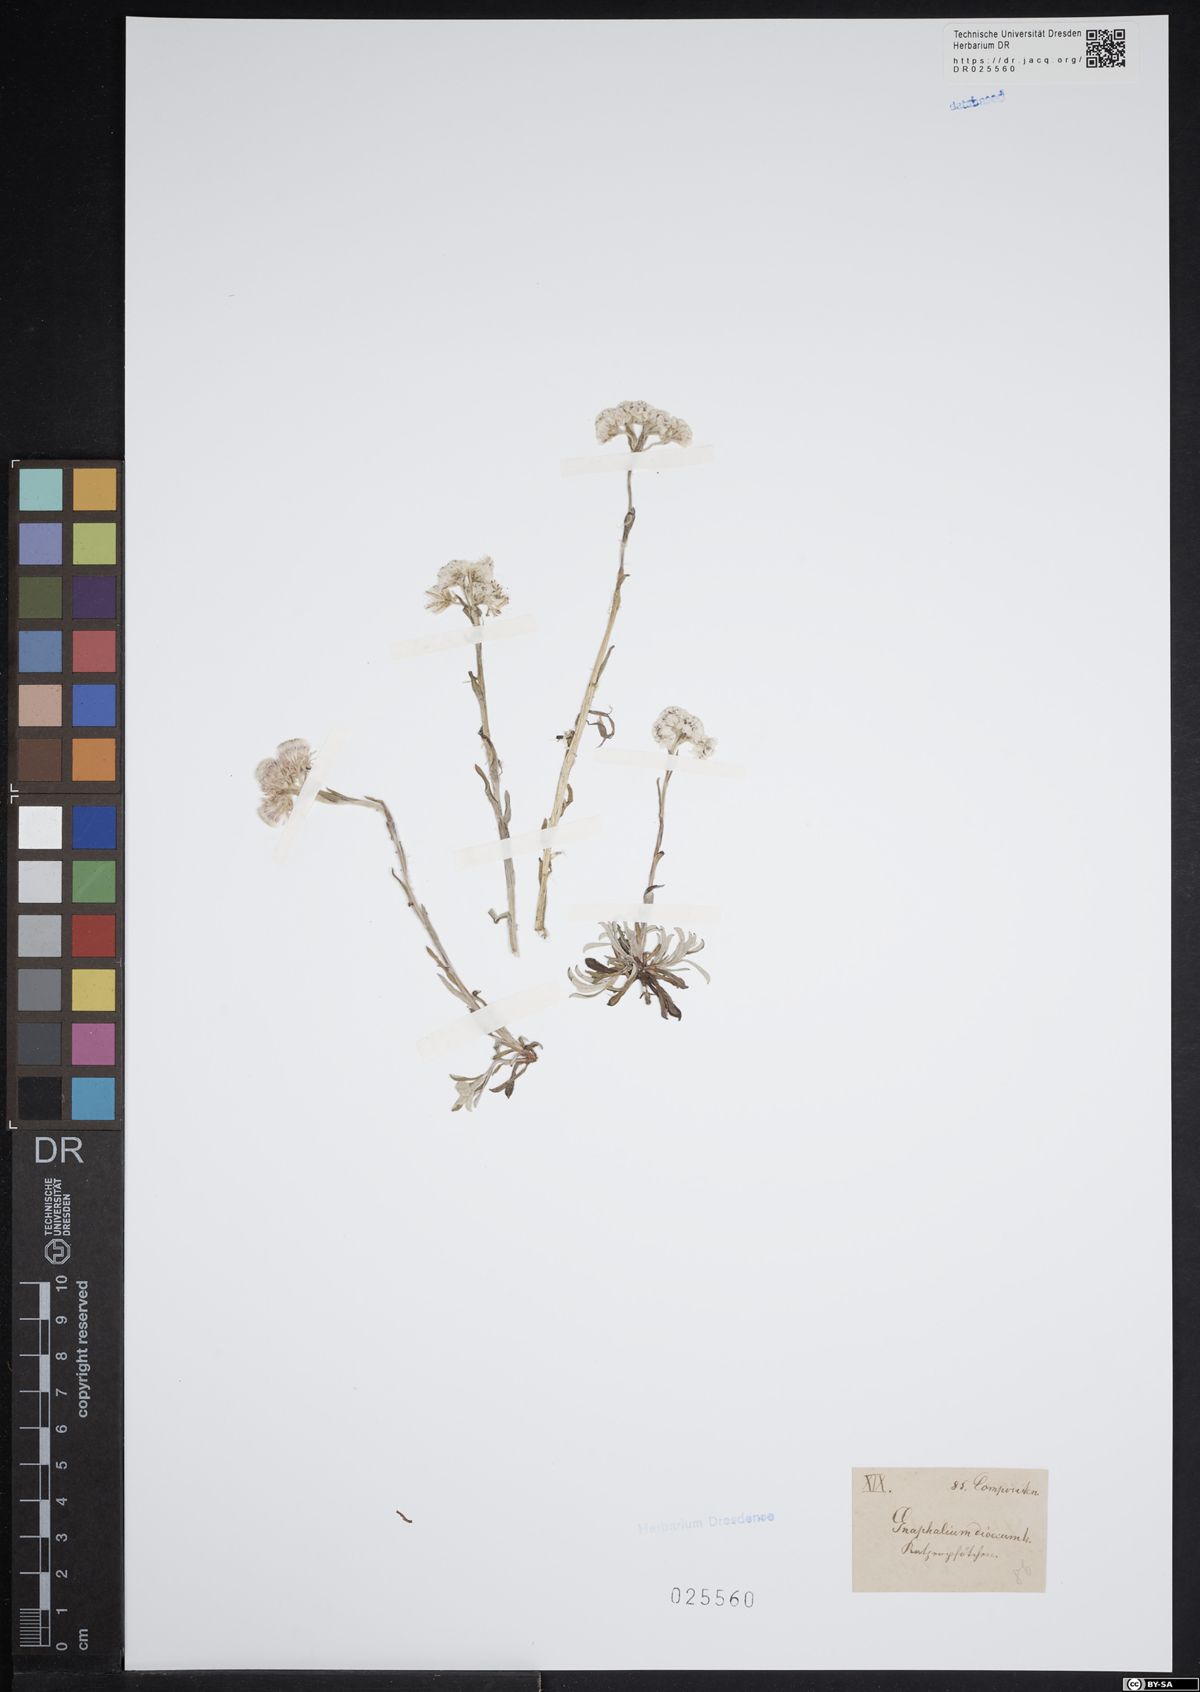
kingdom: Plantae
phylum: Tracheophyta
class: Magnoliopsida
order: Asterales
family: Asteraceae
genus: Antennaria
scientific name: Antennaria dioica
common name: Mountain everlasting
